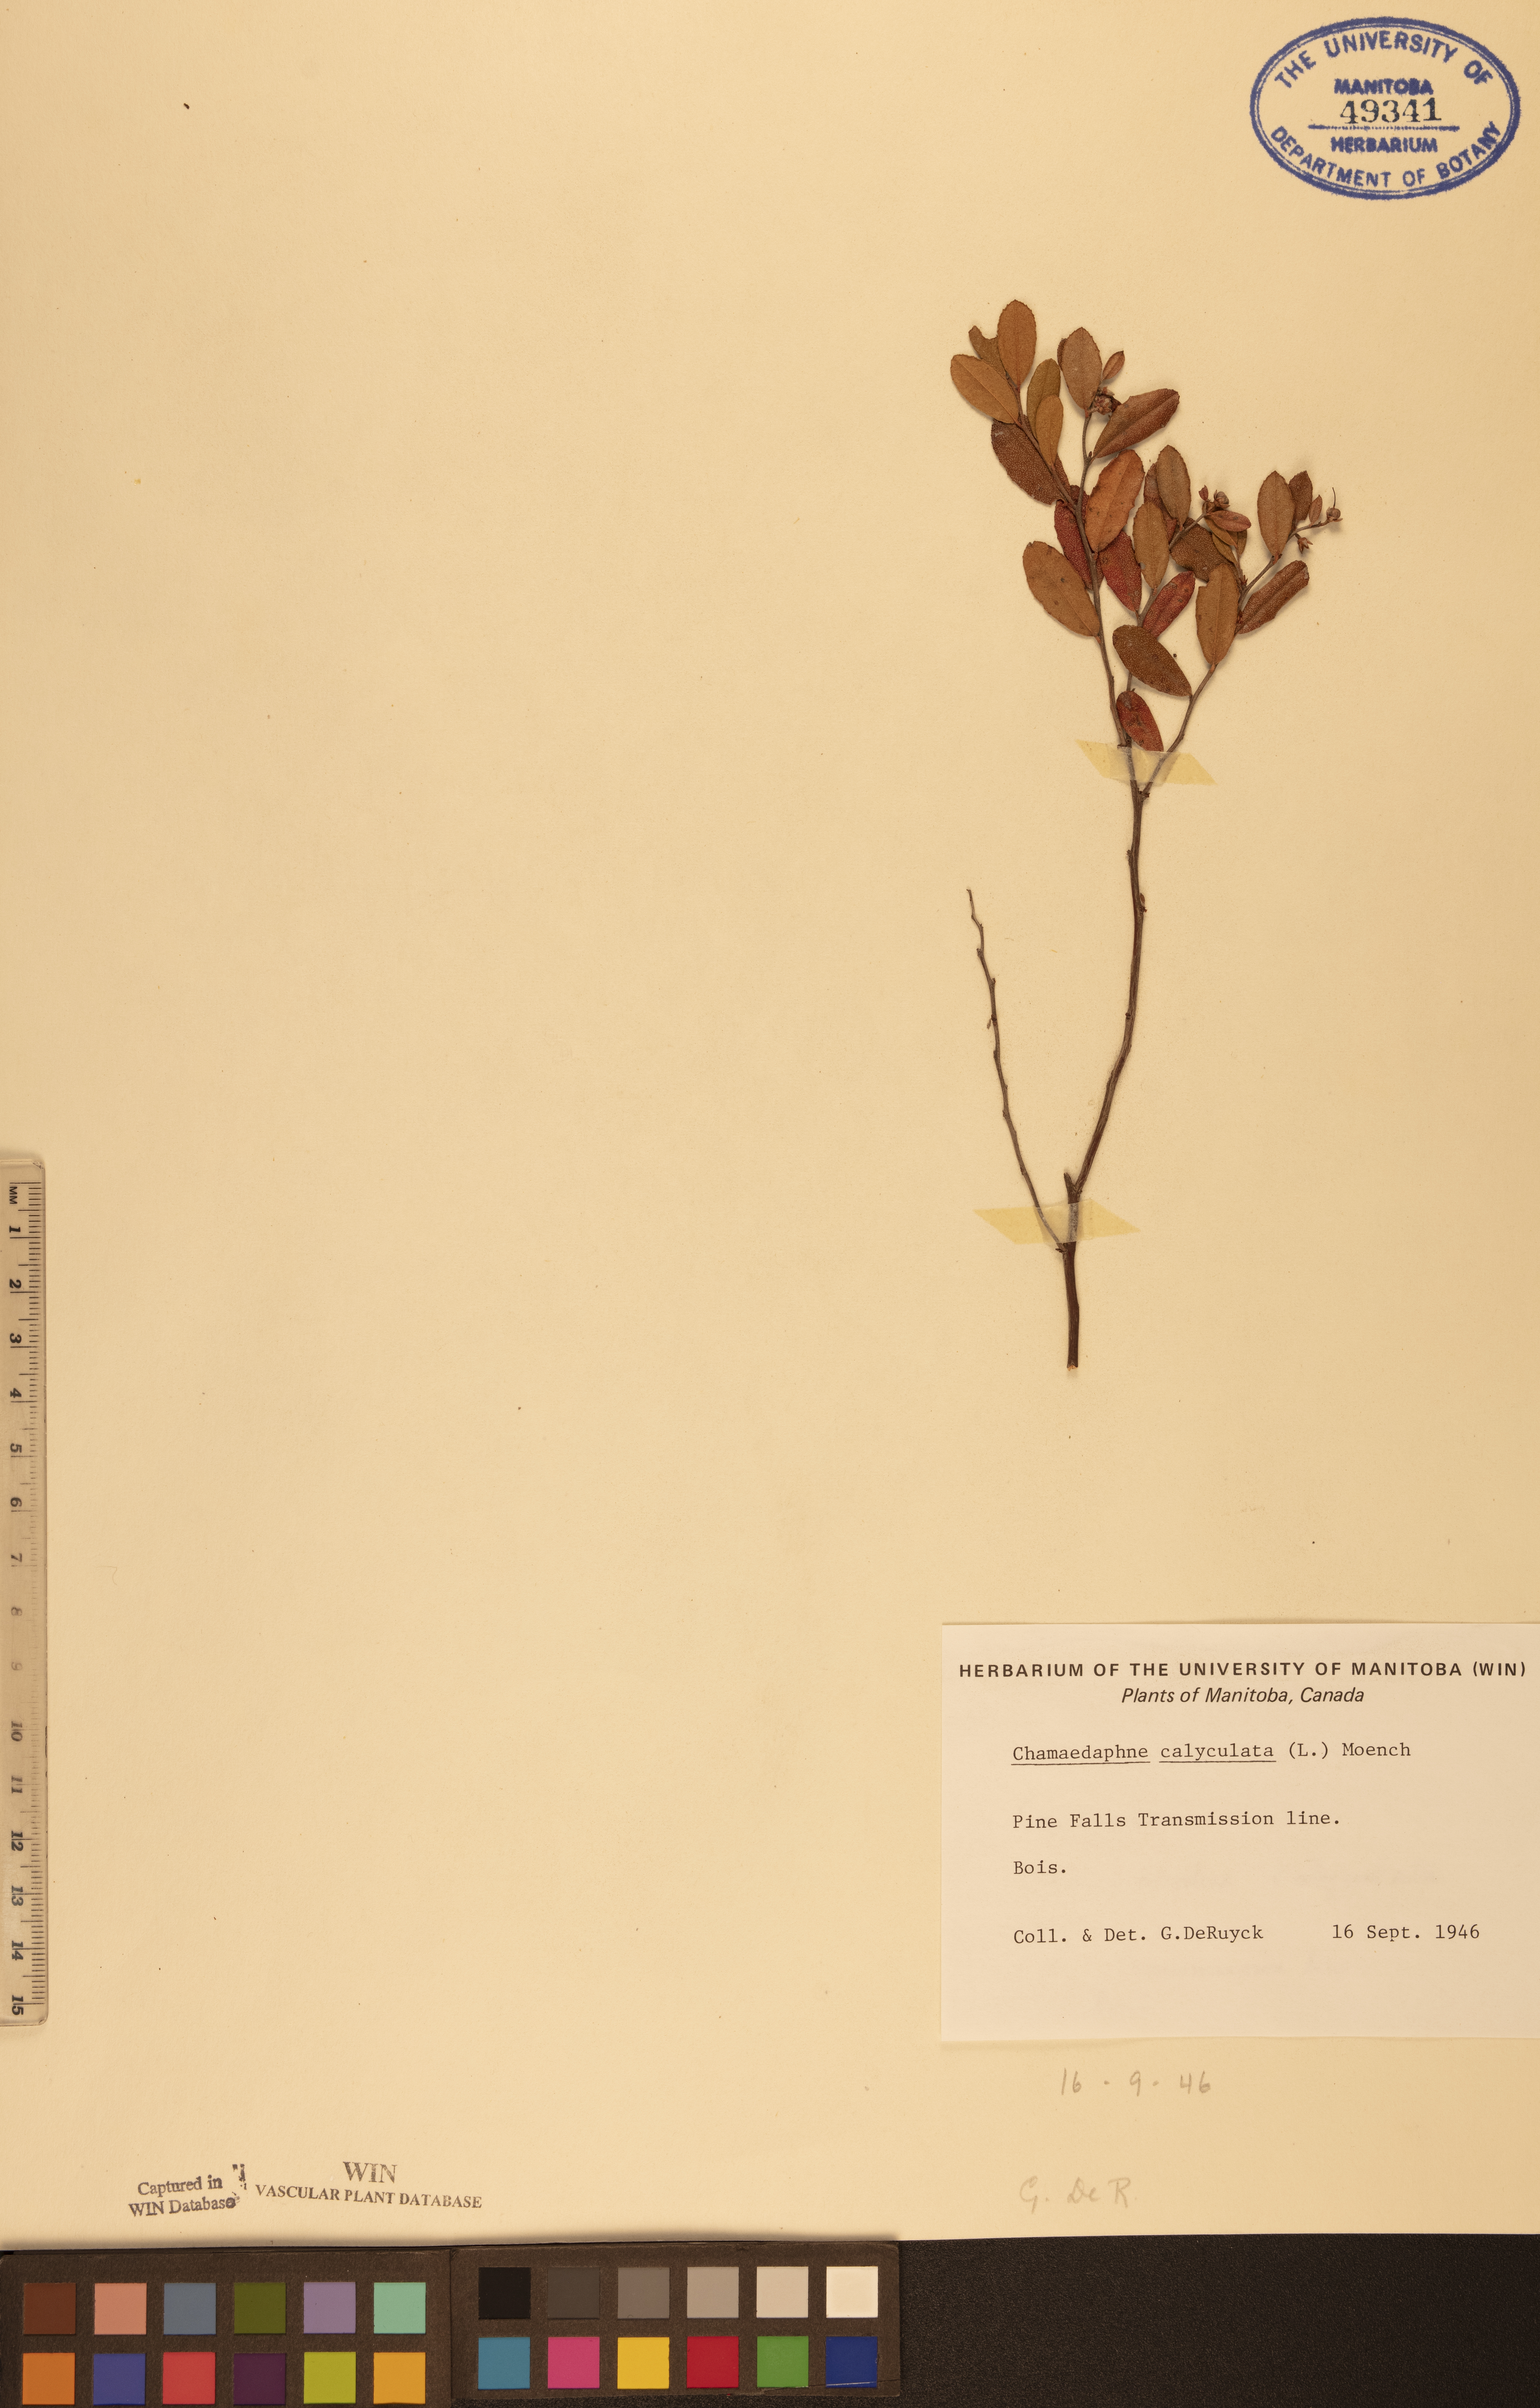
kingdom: Plantae
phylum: Tracheophyta
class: Magnoliopsida
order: Ericales
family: Ericaceae
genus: Chamaedaphne
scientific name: Chamaedaphne calyculata
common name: Leatherleaf
